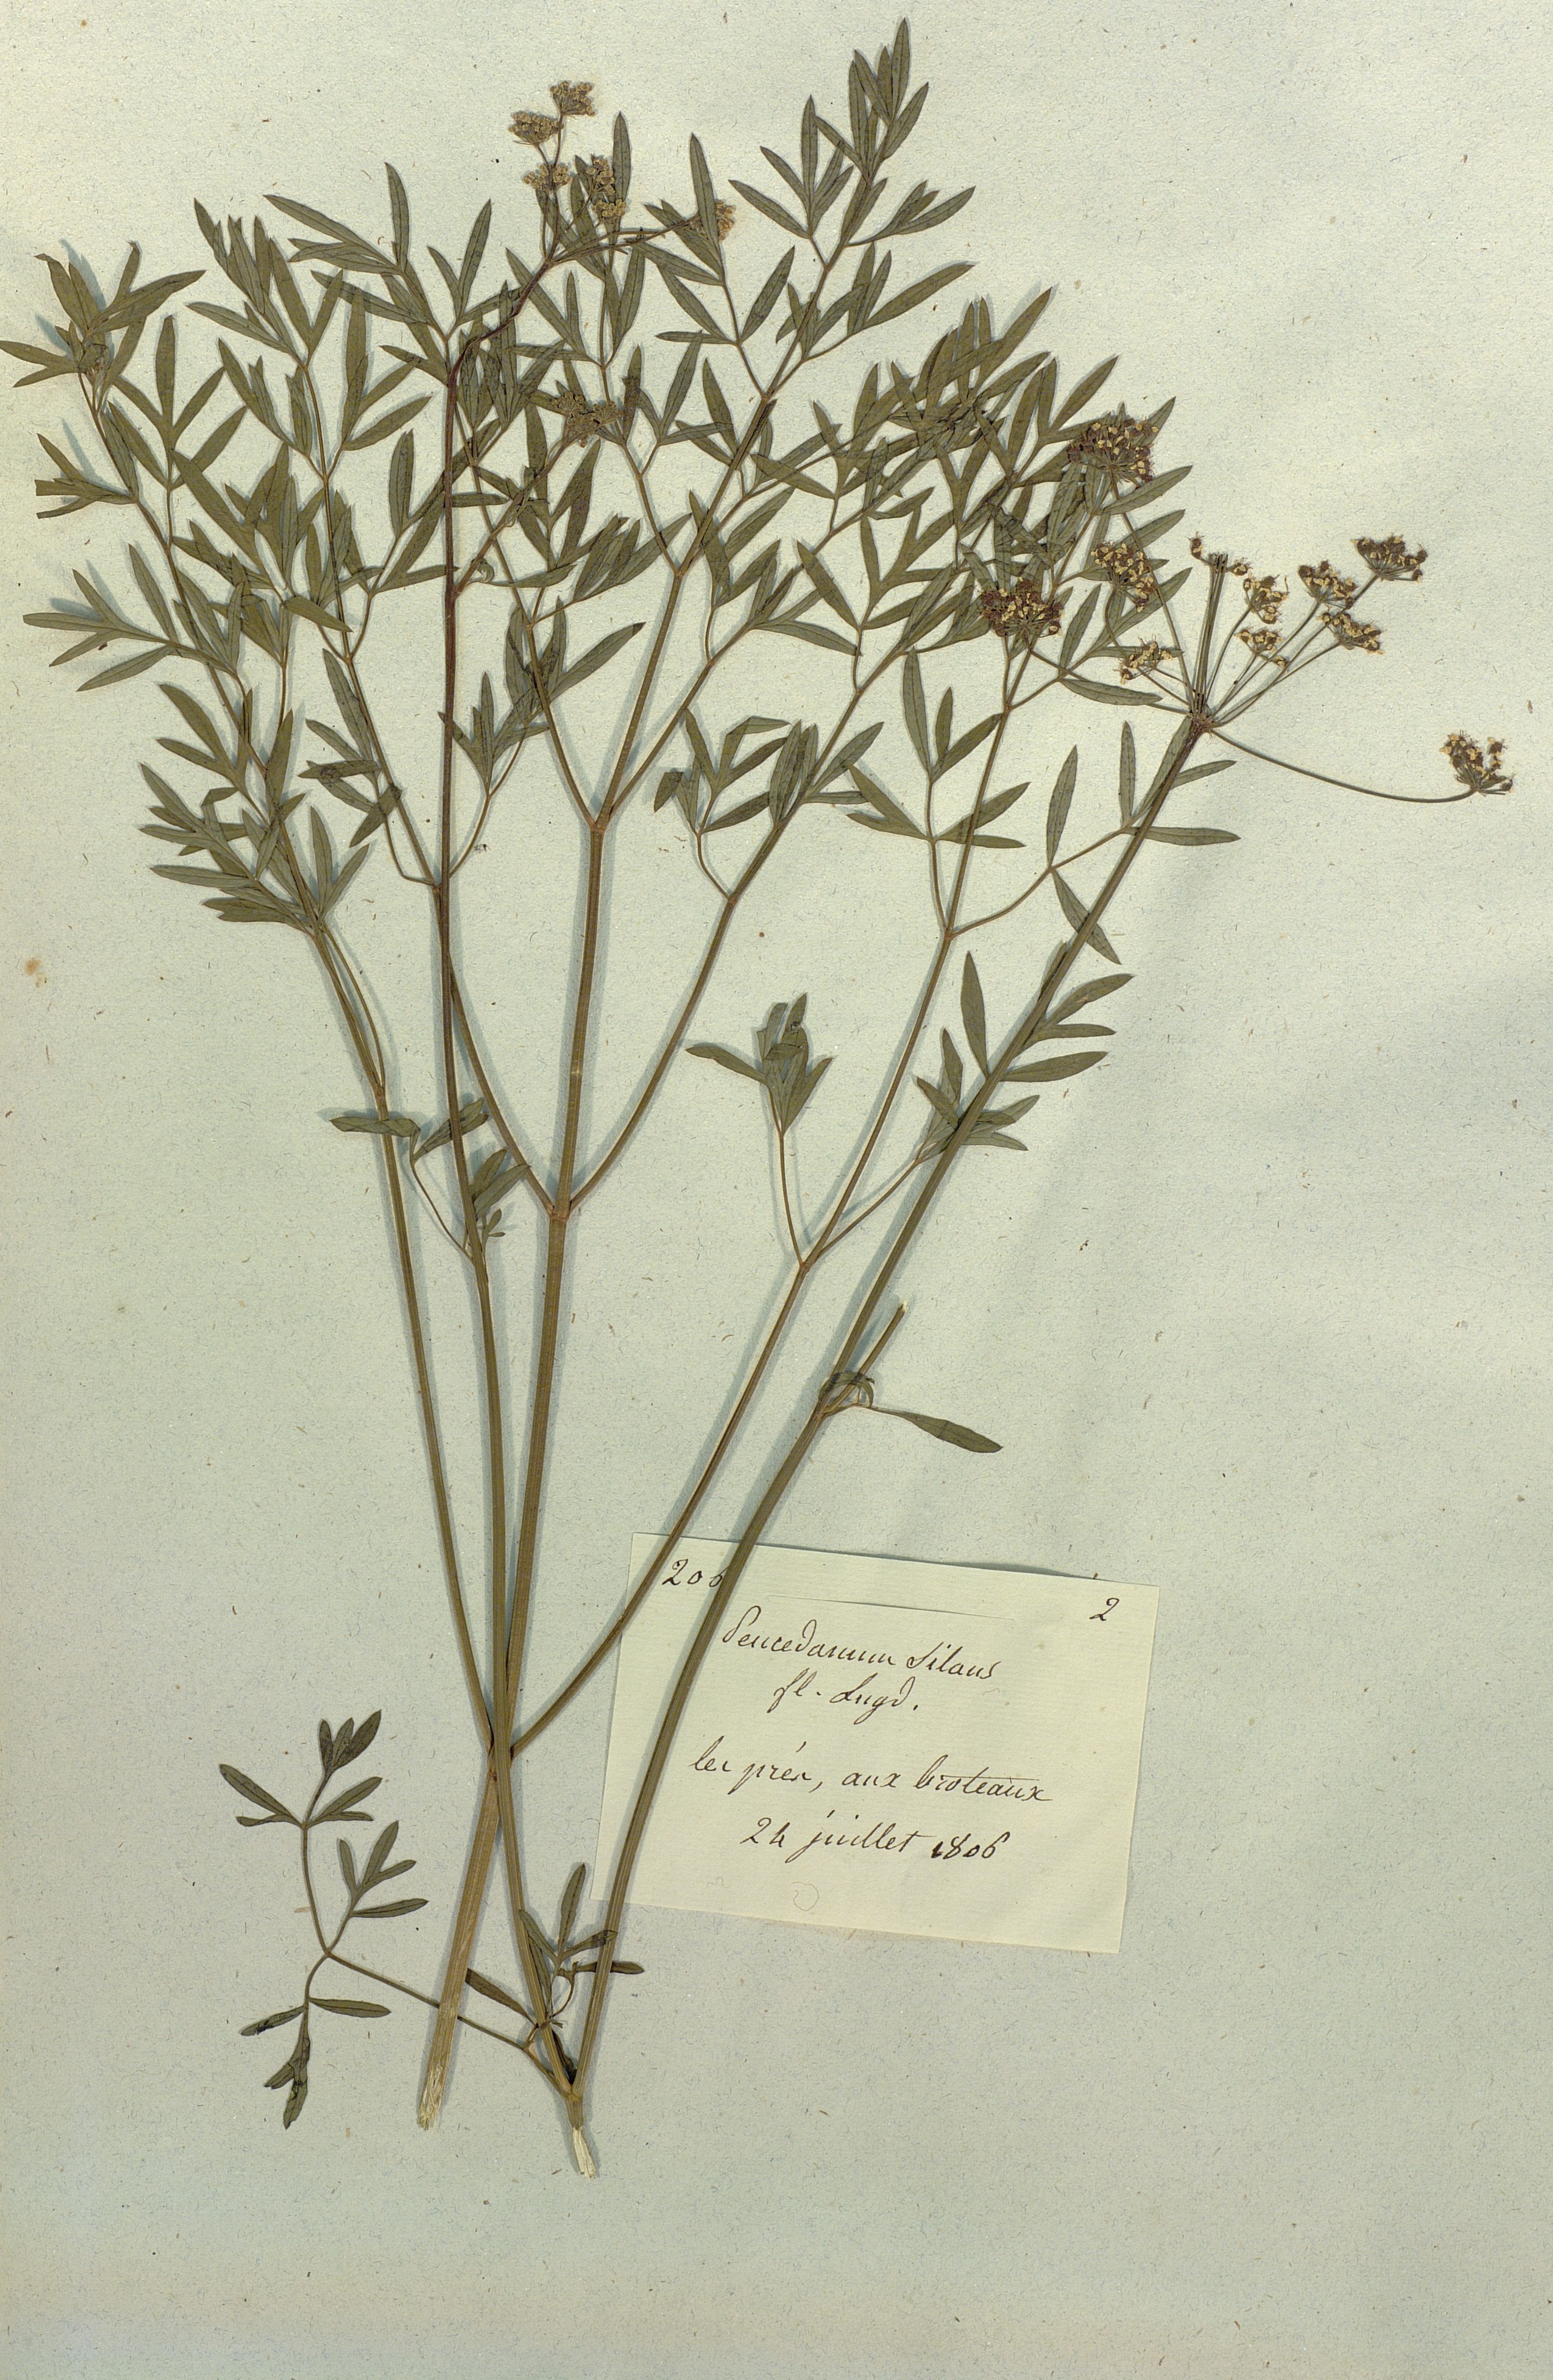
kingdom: Plantae
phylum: Tracheophyta
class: Magnoliopsida
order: Apiales
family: Apiaceae
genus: Peucedanum
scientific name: Peucedanum silaus
